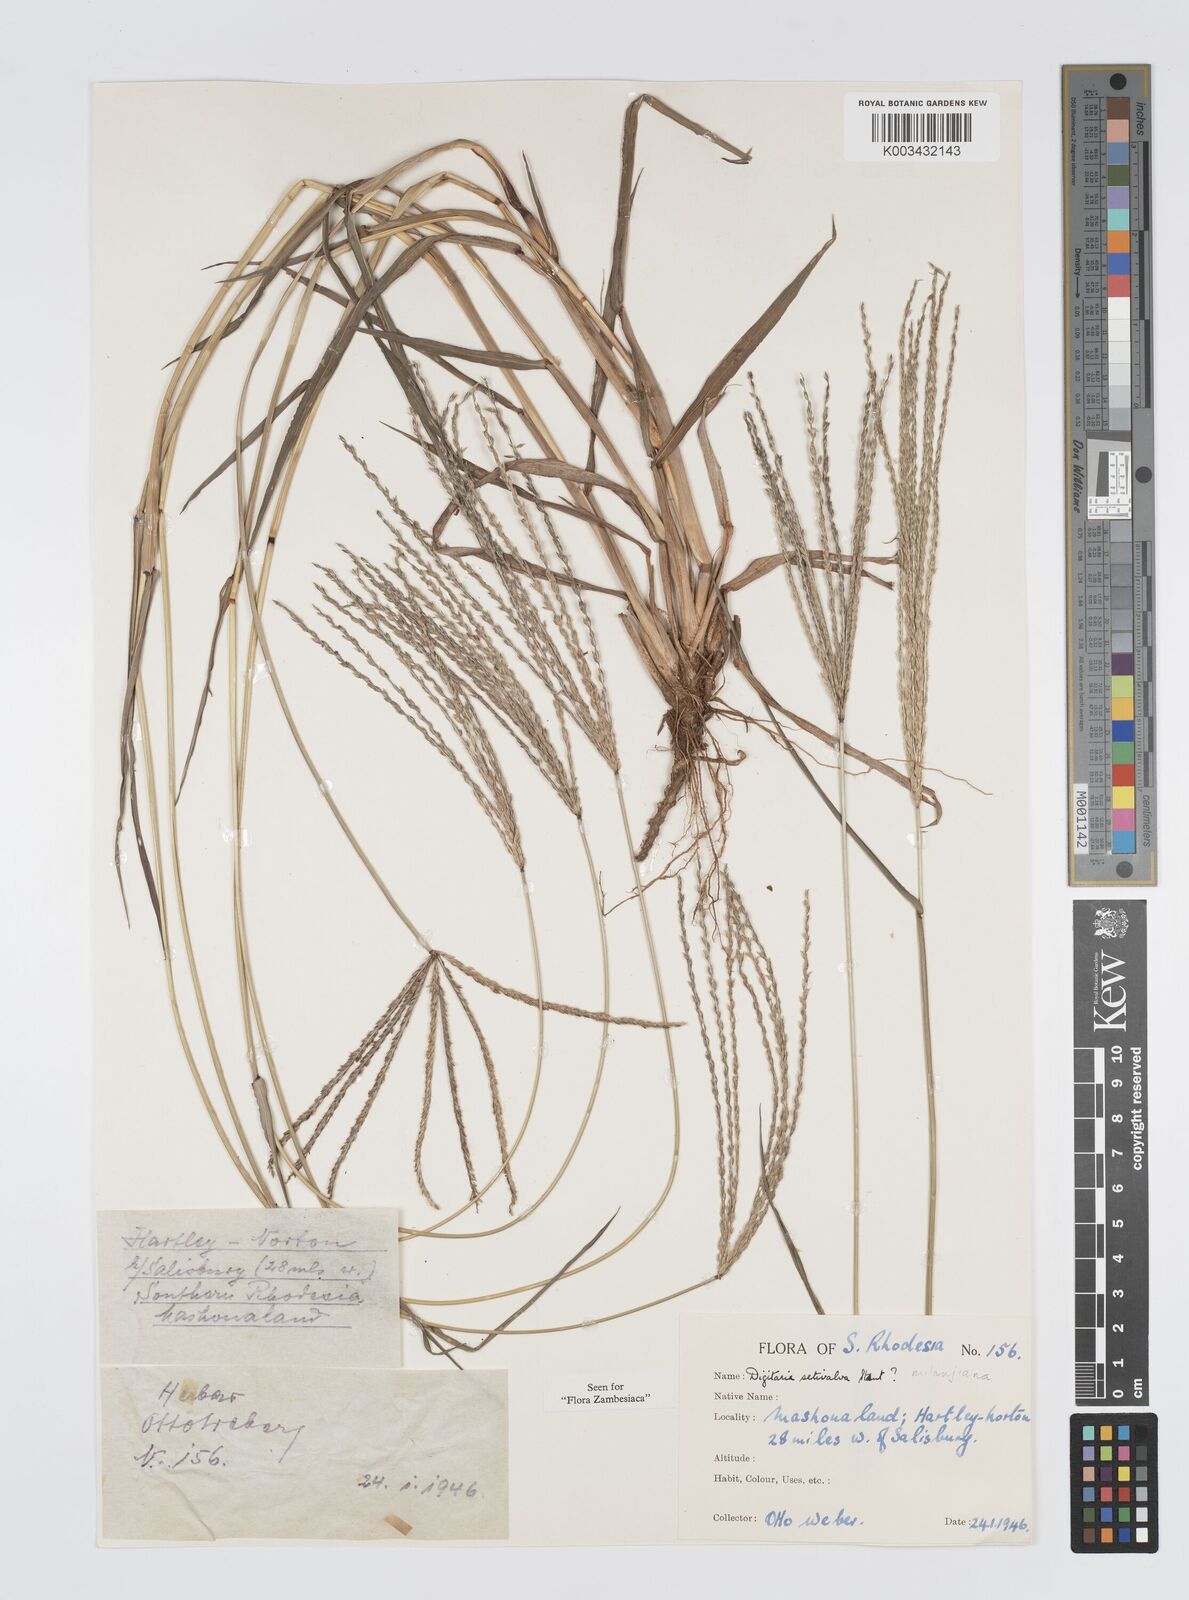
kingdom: Plantae
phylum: Tracheophyta
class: Liliopsida
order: Poales
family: Poaceae
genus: Digitaria
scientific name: Digitaria milanjiana
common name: Madagascar crabgrass
